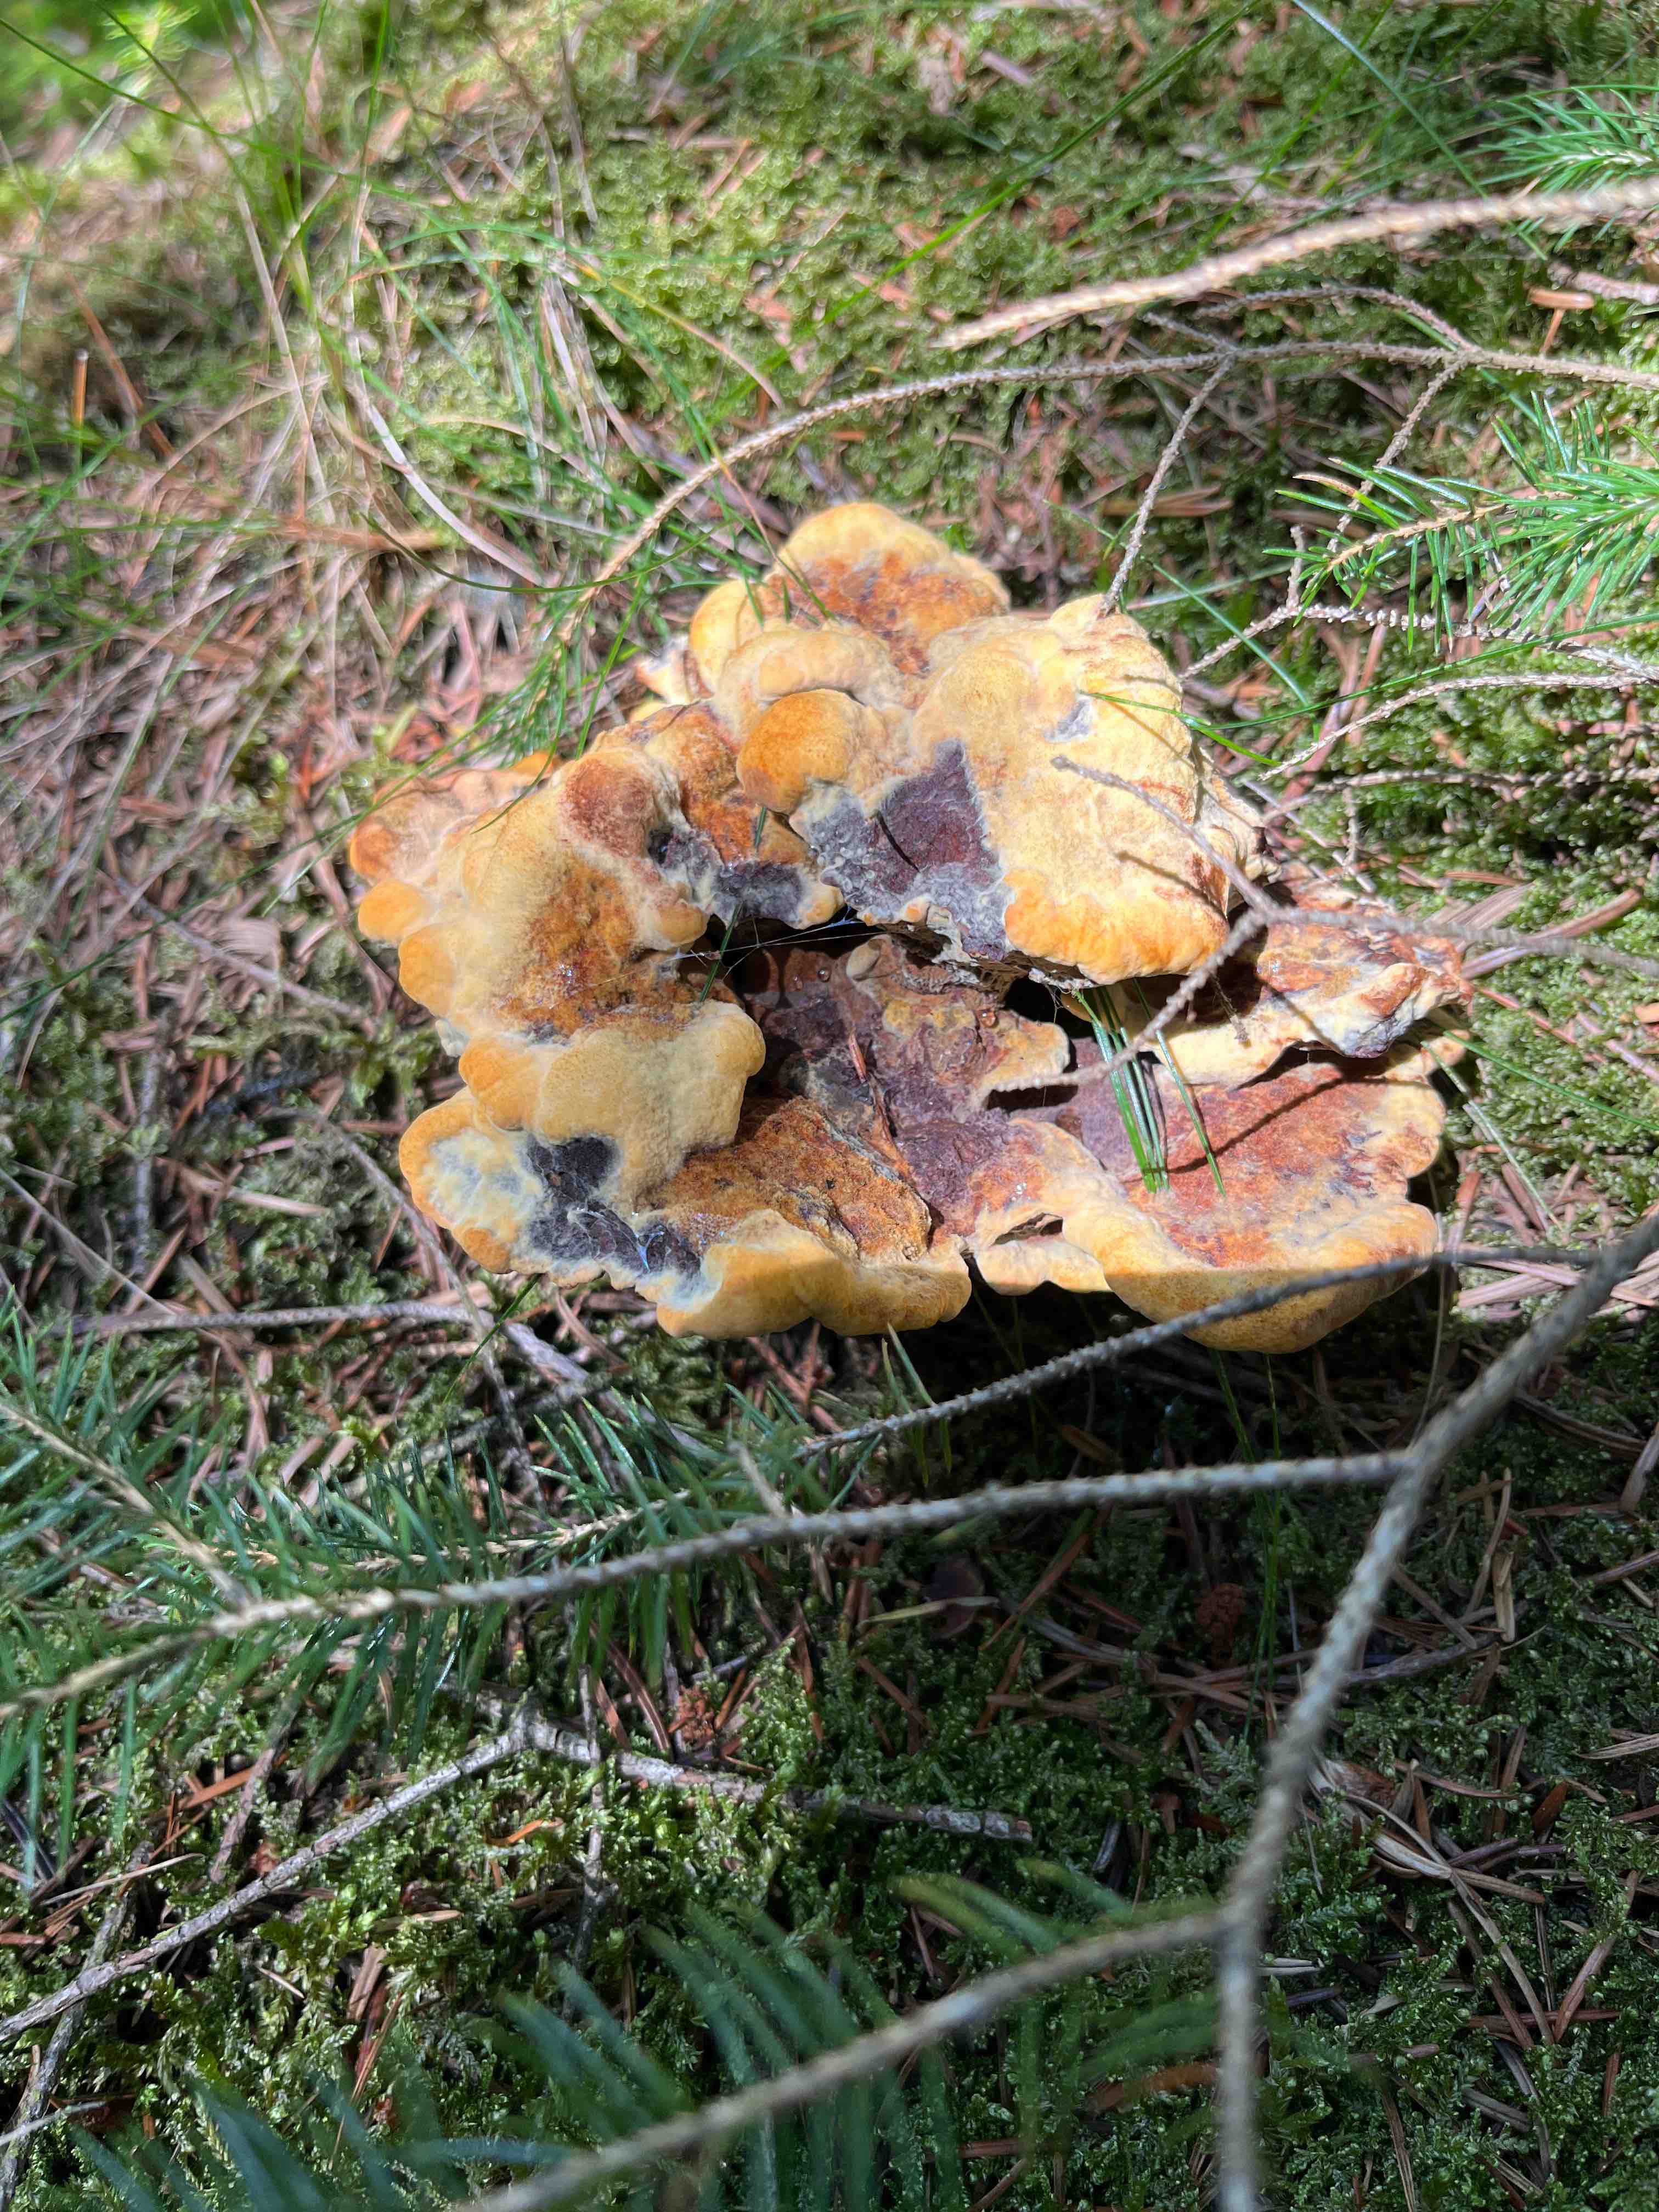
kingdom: Fungi
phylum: Basidiomycota
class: Agaricomycetes
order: Polyporales
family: Laetiporaceae
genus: Phaeolus
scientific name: Phaeolus schweinitzii
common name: brunporesvamp
